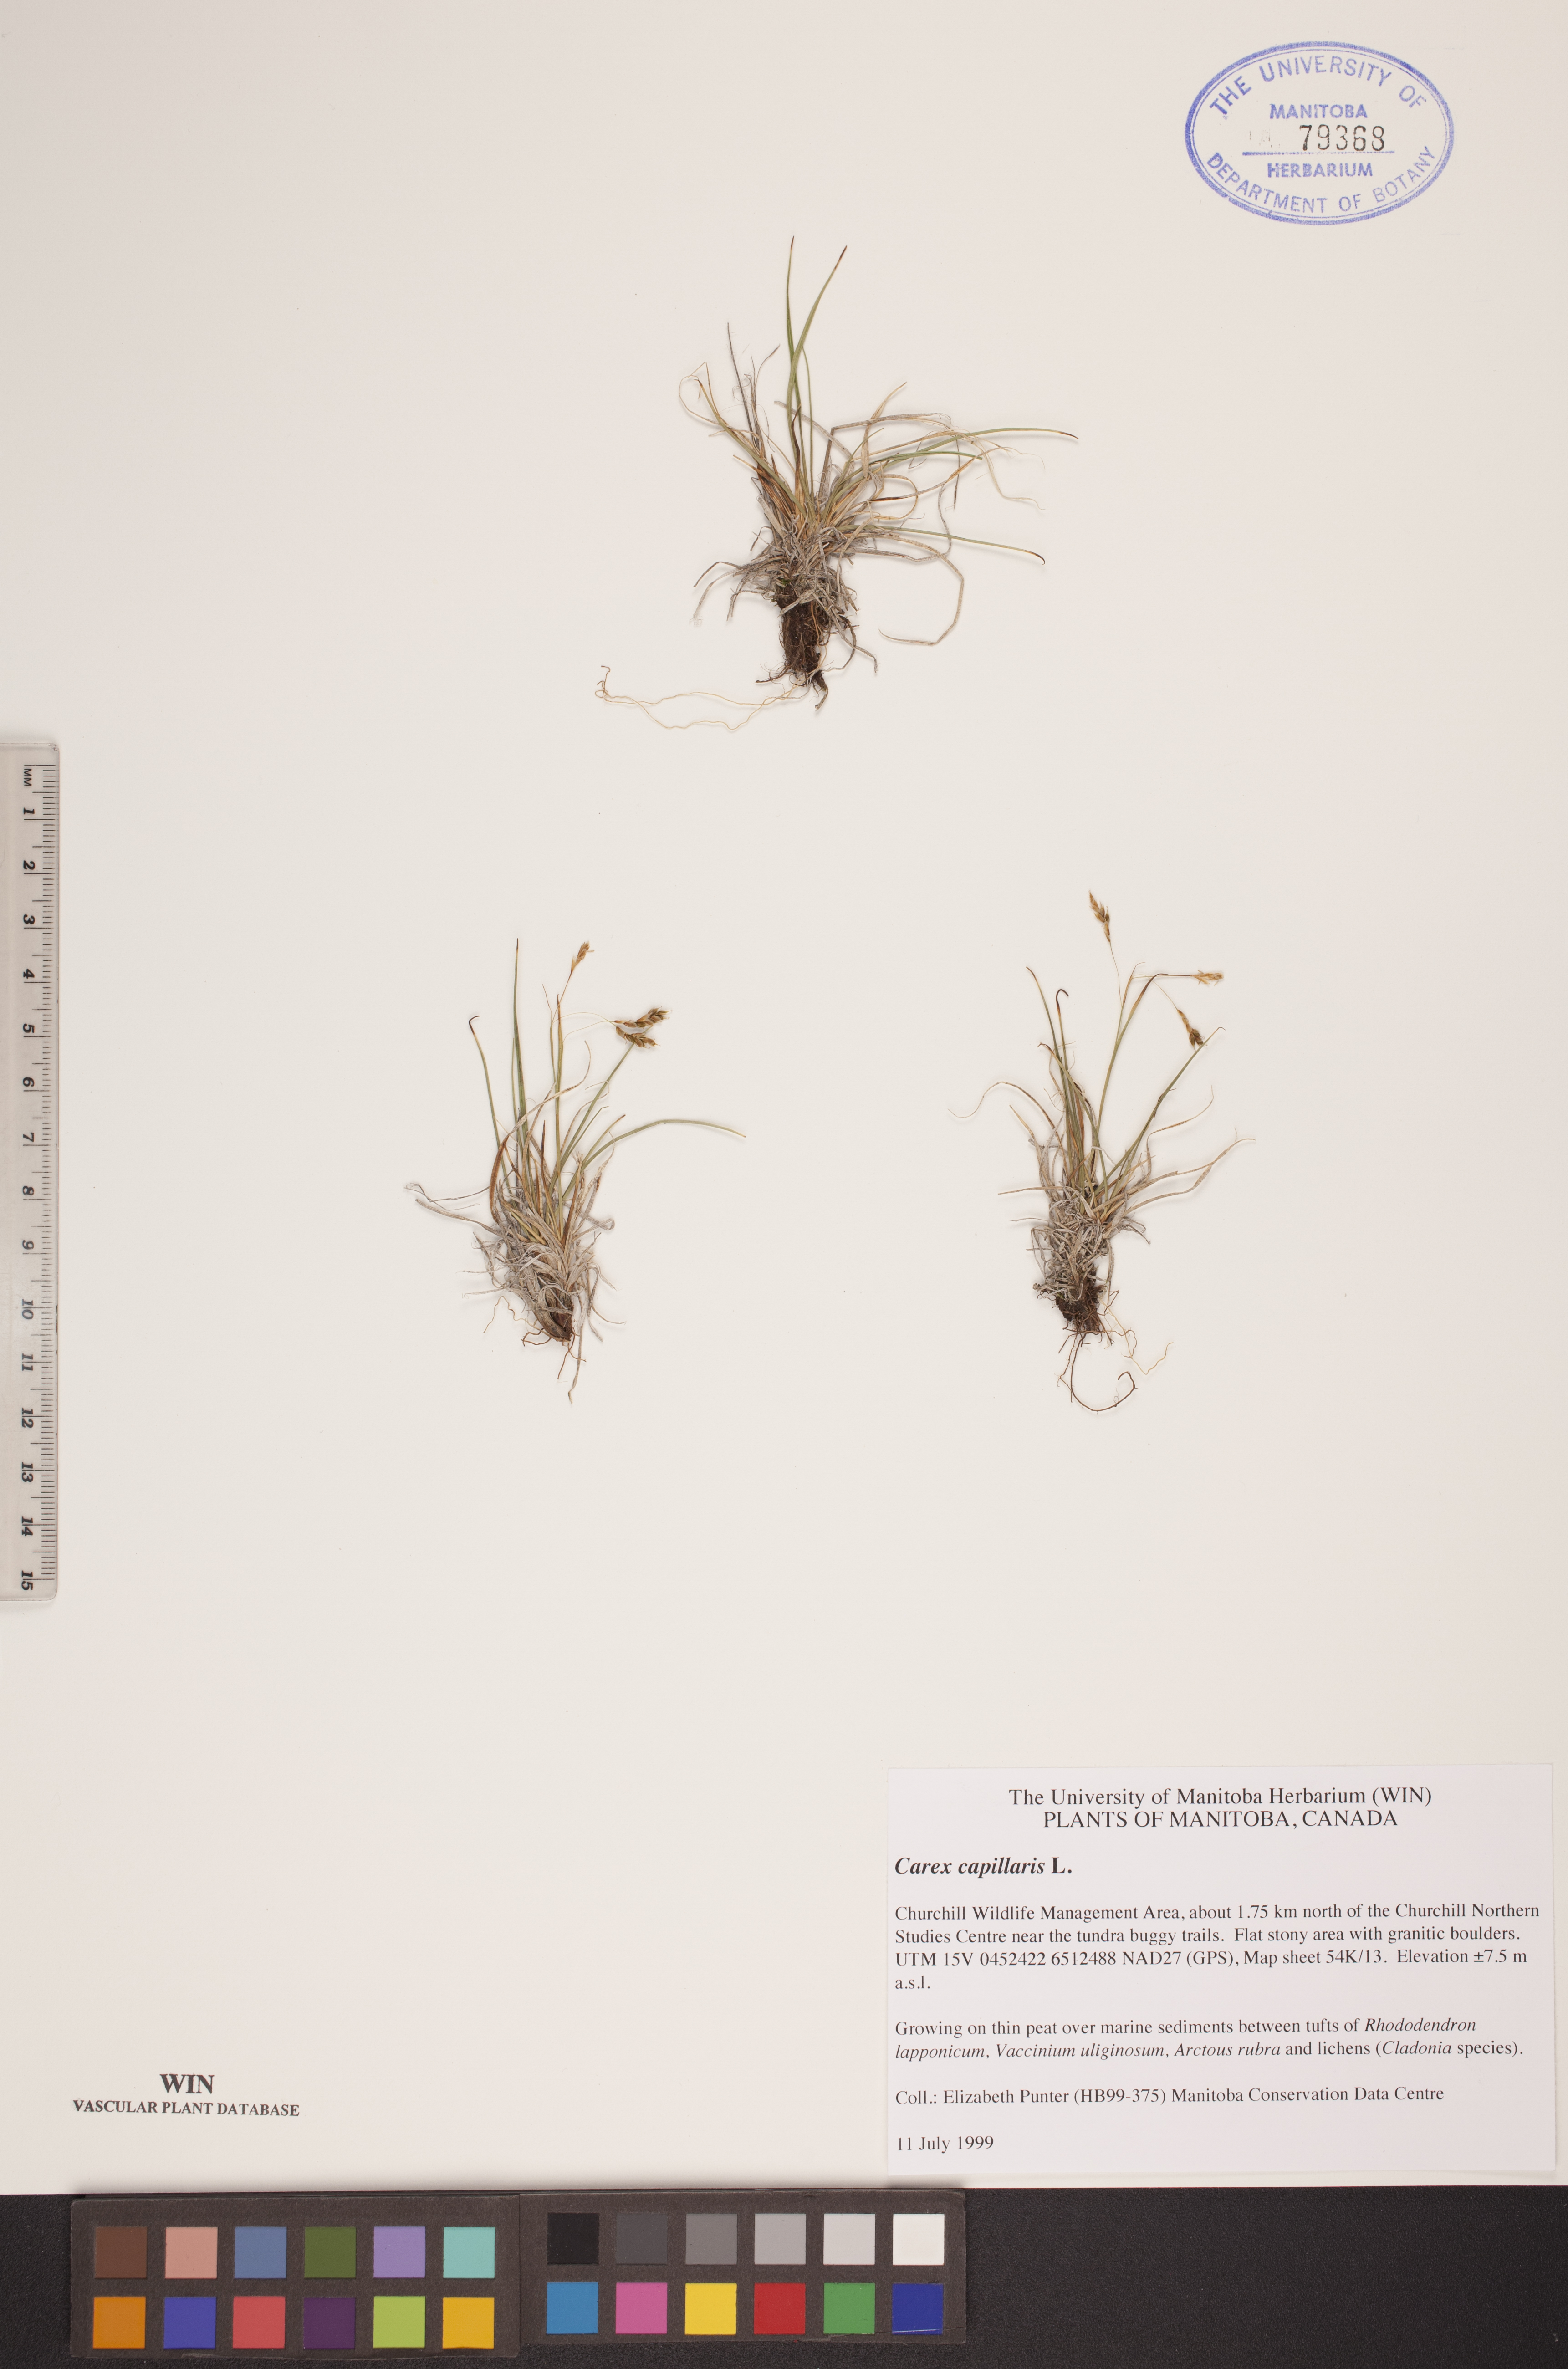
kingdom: Plantae
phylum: Tracheophyta
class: Liliopsida
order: Poales
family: Cyperaceae
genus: Carex
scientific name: Carex capillaris
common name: Hair sedge
